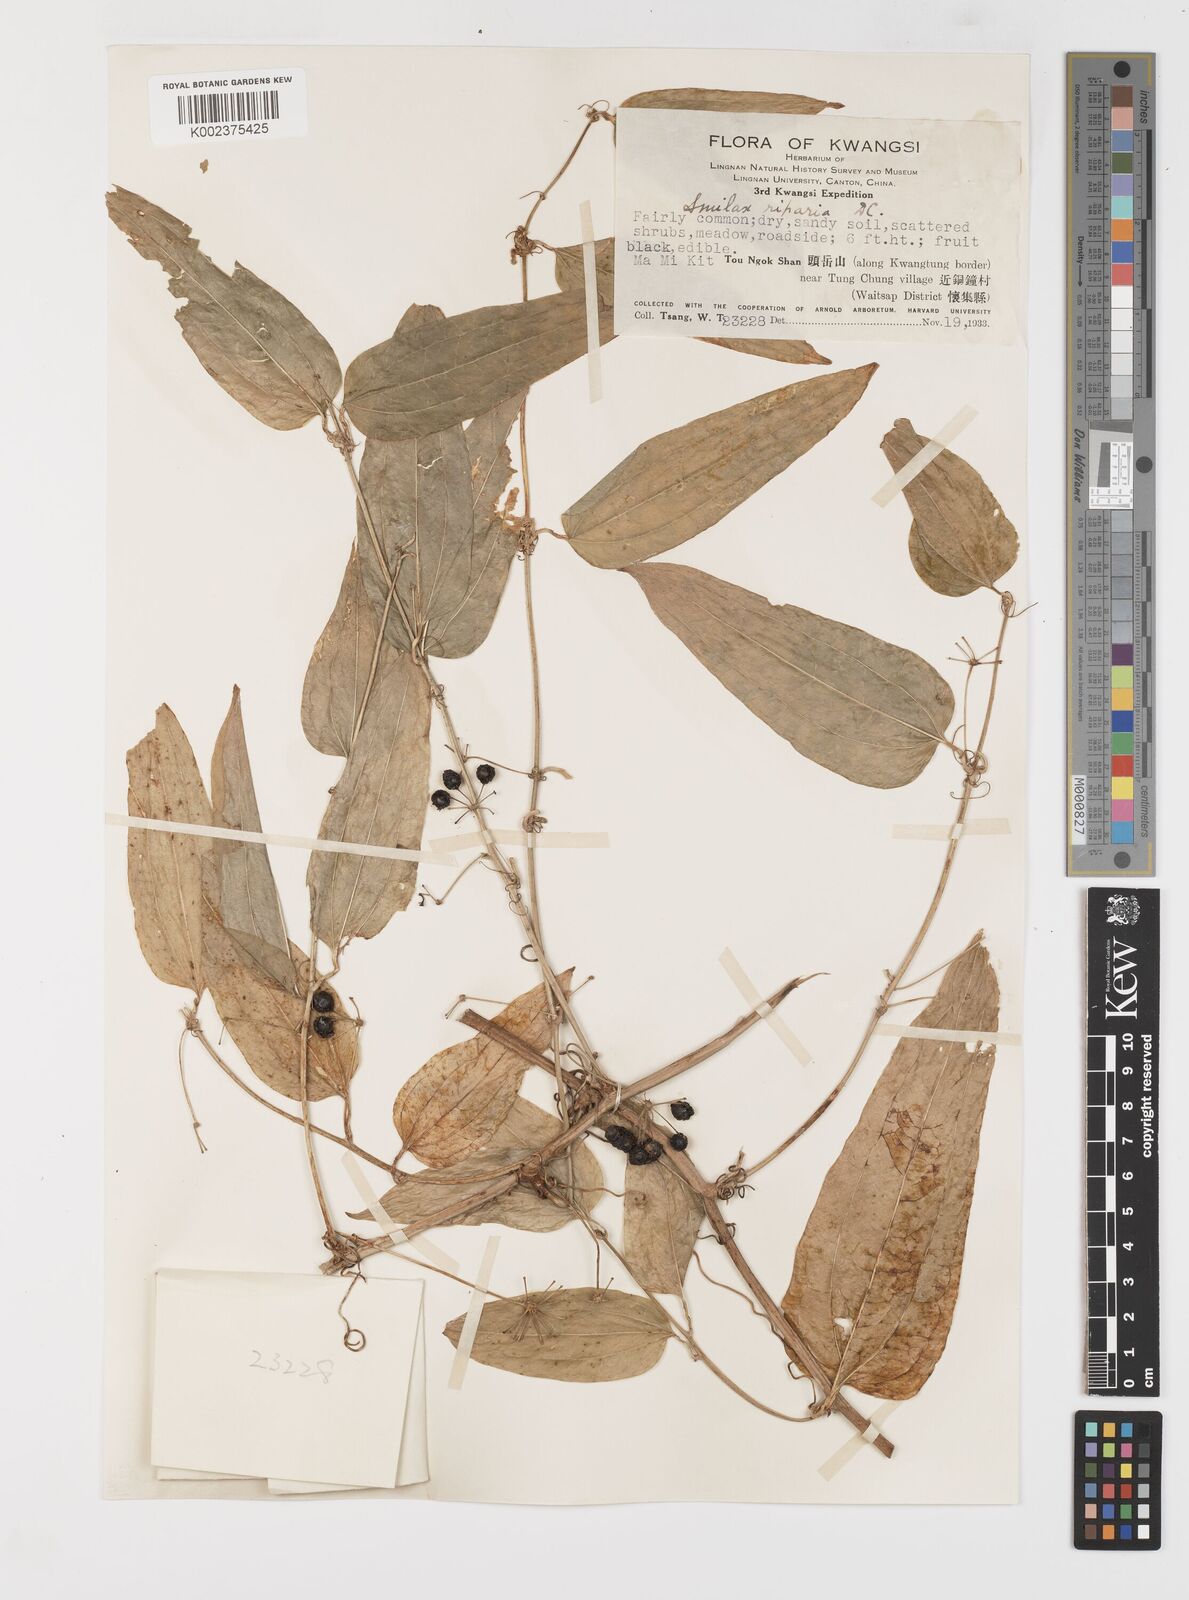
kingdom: Plantae
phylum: Tracheophyta
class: Liliopsida
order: Liliales
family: Smilacaceae
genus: Smilax
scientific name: Smilax riparia
